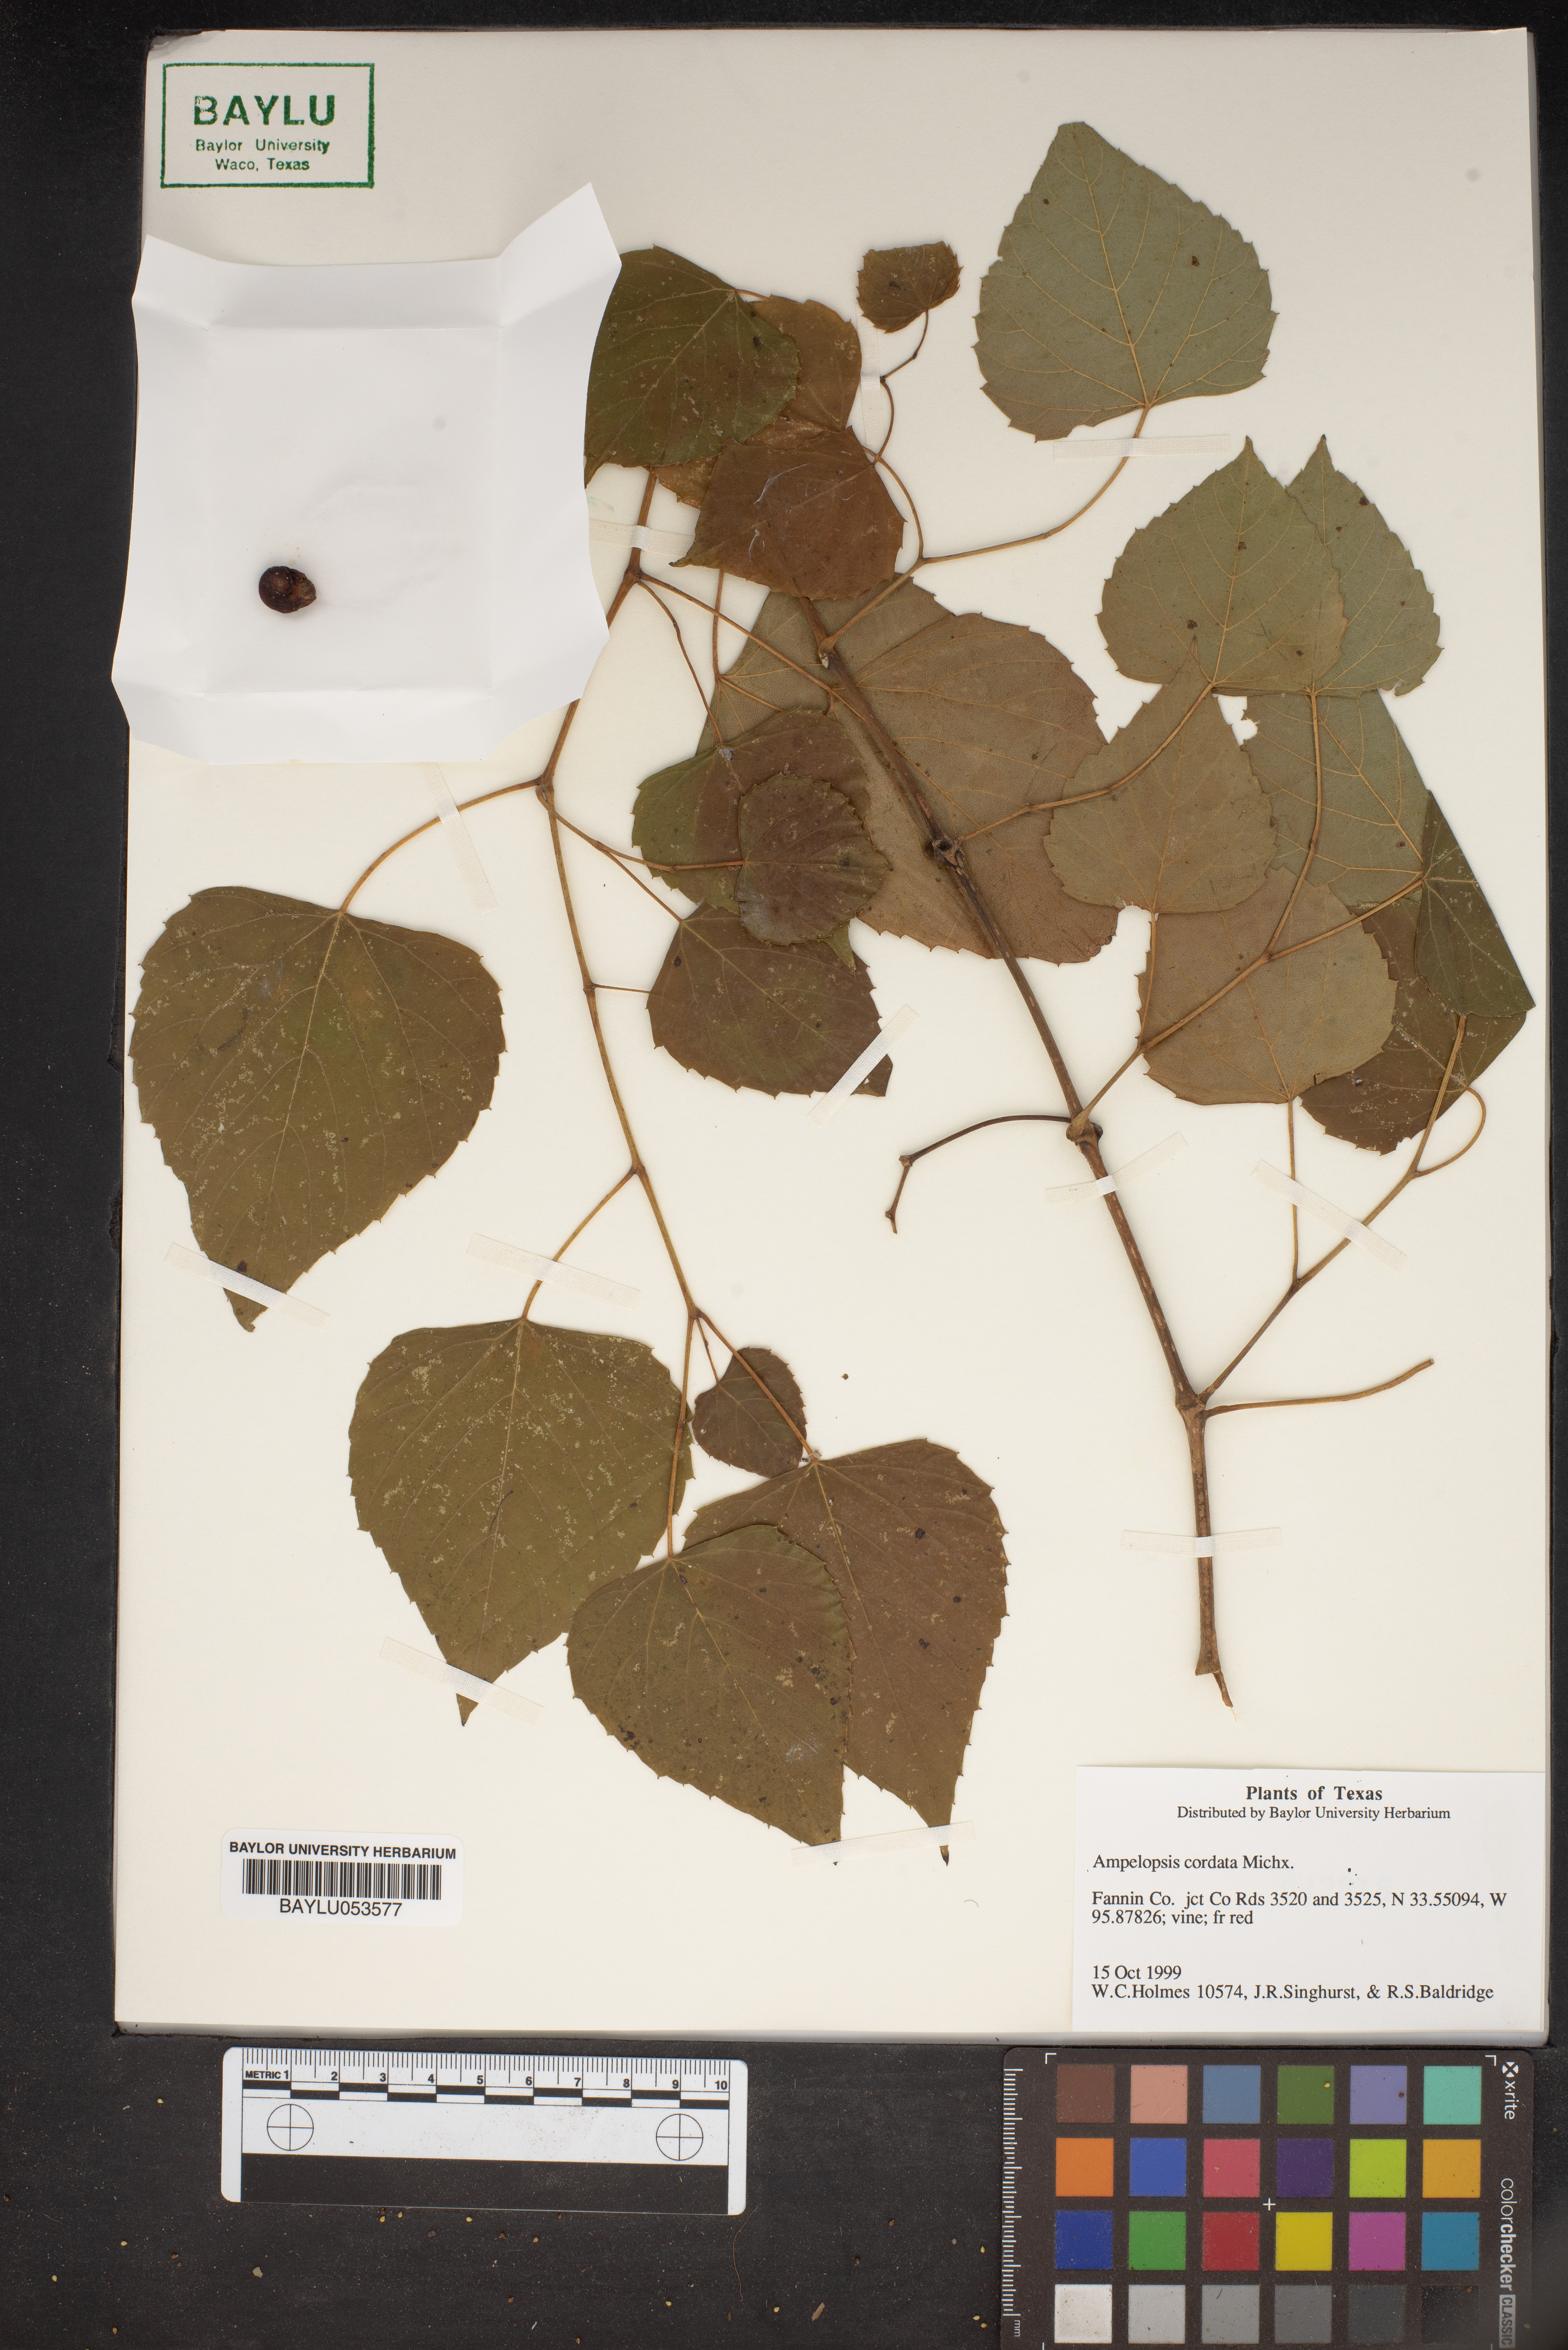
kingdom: Plantae
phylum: Tracheophyta
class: Magnoliopsida
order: Vitales
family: Vitaceae
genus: Ampelopsis
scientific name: Ampelopsis cordata
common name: Heart-leaf ampelopsis
